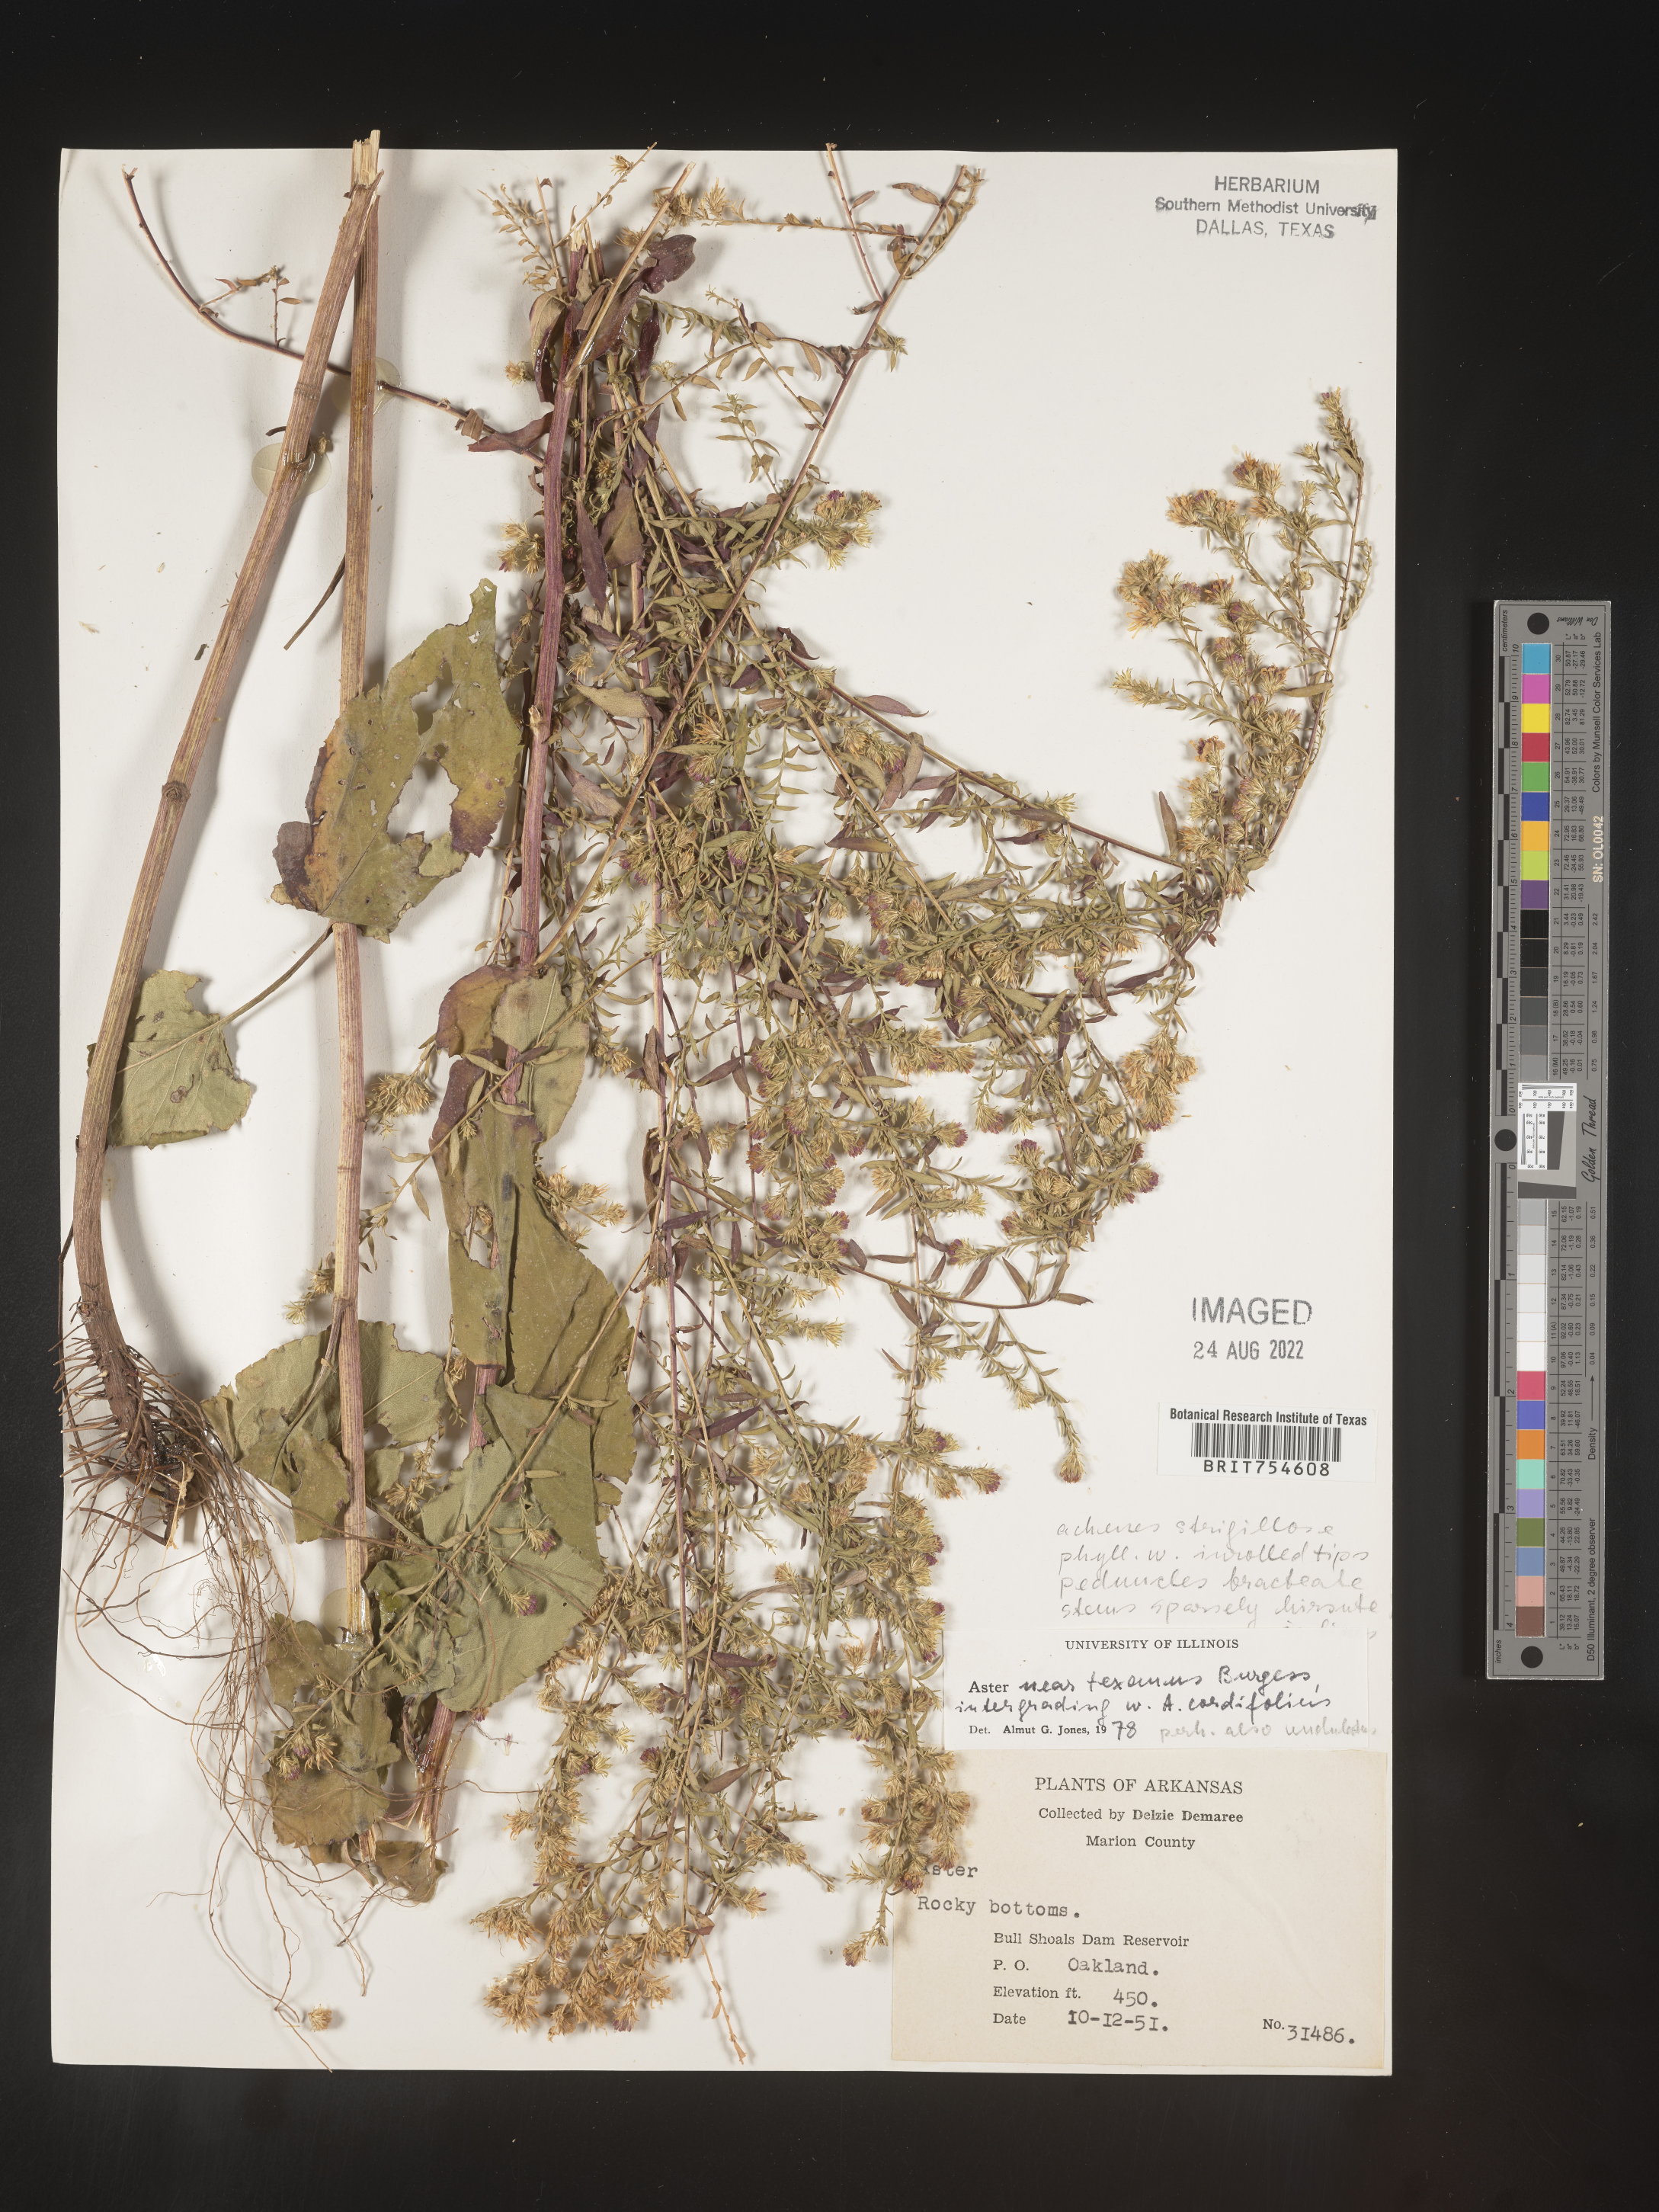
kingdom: Plantae
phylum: Tracheophyta
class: Magnoliopsida
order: Asterales
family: Asteraceae
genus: Symphyotrichum
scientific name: Symphyotrichum urophyllum
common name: Arrow-leaved aster
